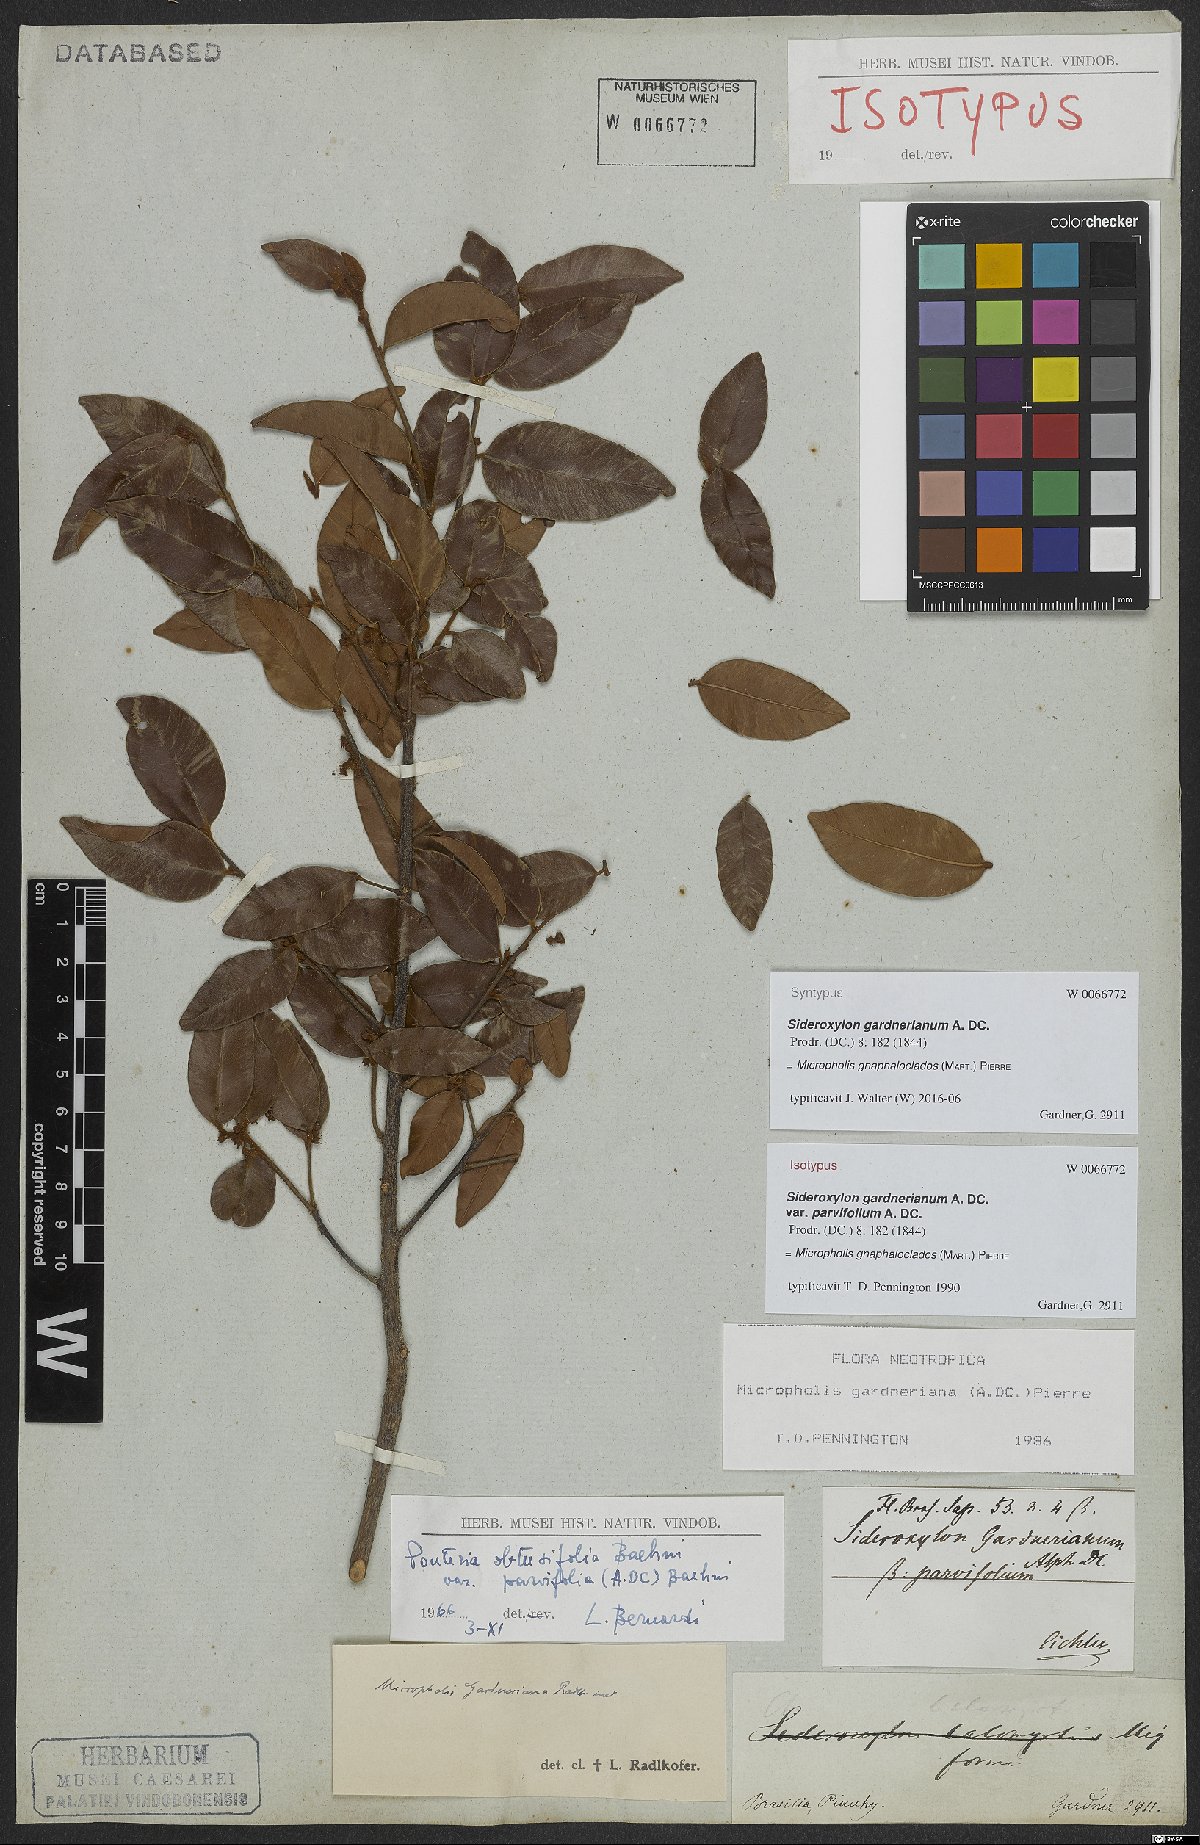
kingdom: Plantae
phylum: Tracheophyta
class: Magnoliopsida
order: Ericales
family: Sapotaceae
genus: Micropholis
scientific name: Micropholis gnaphaloclados
